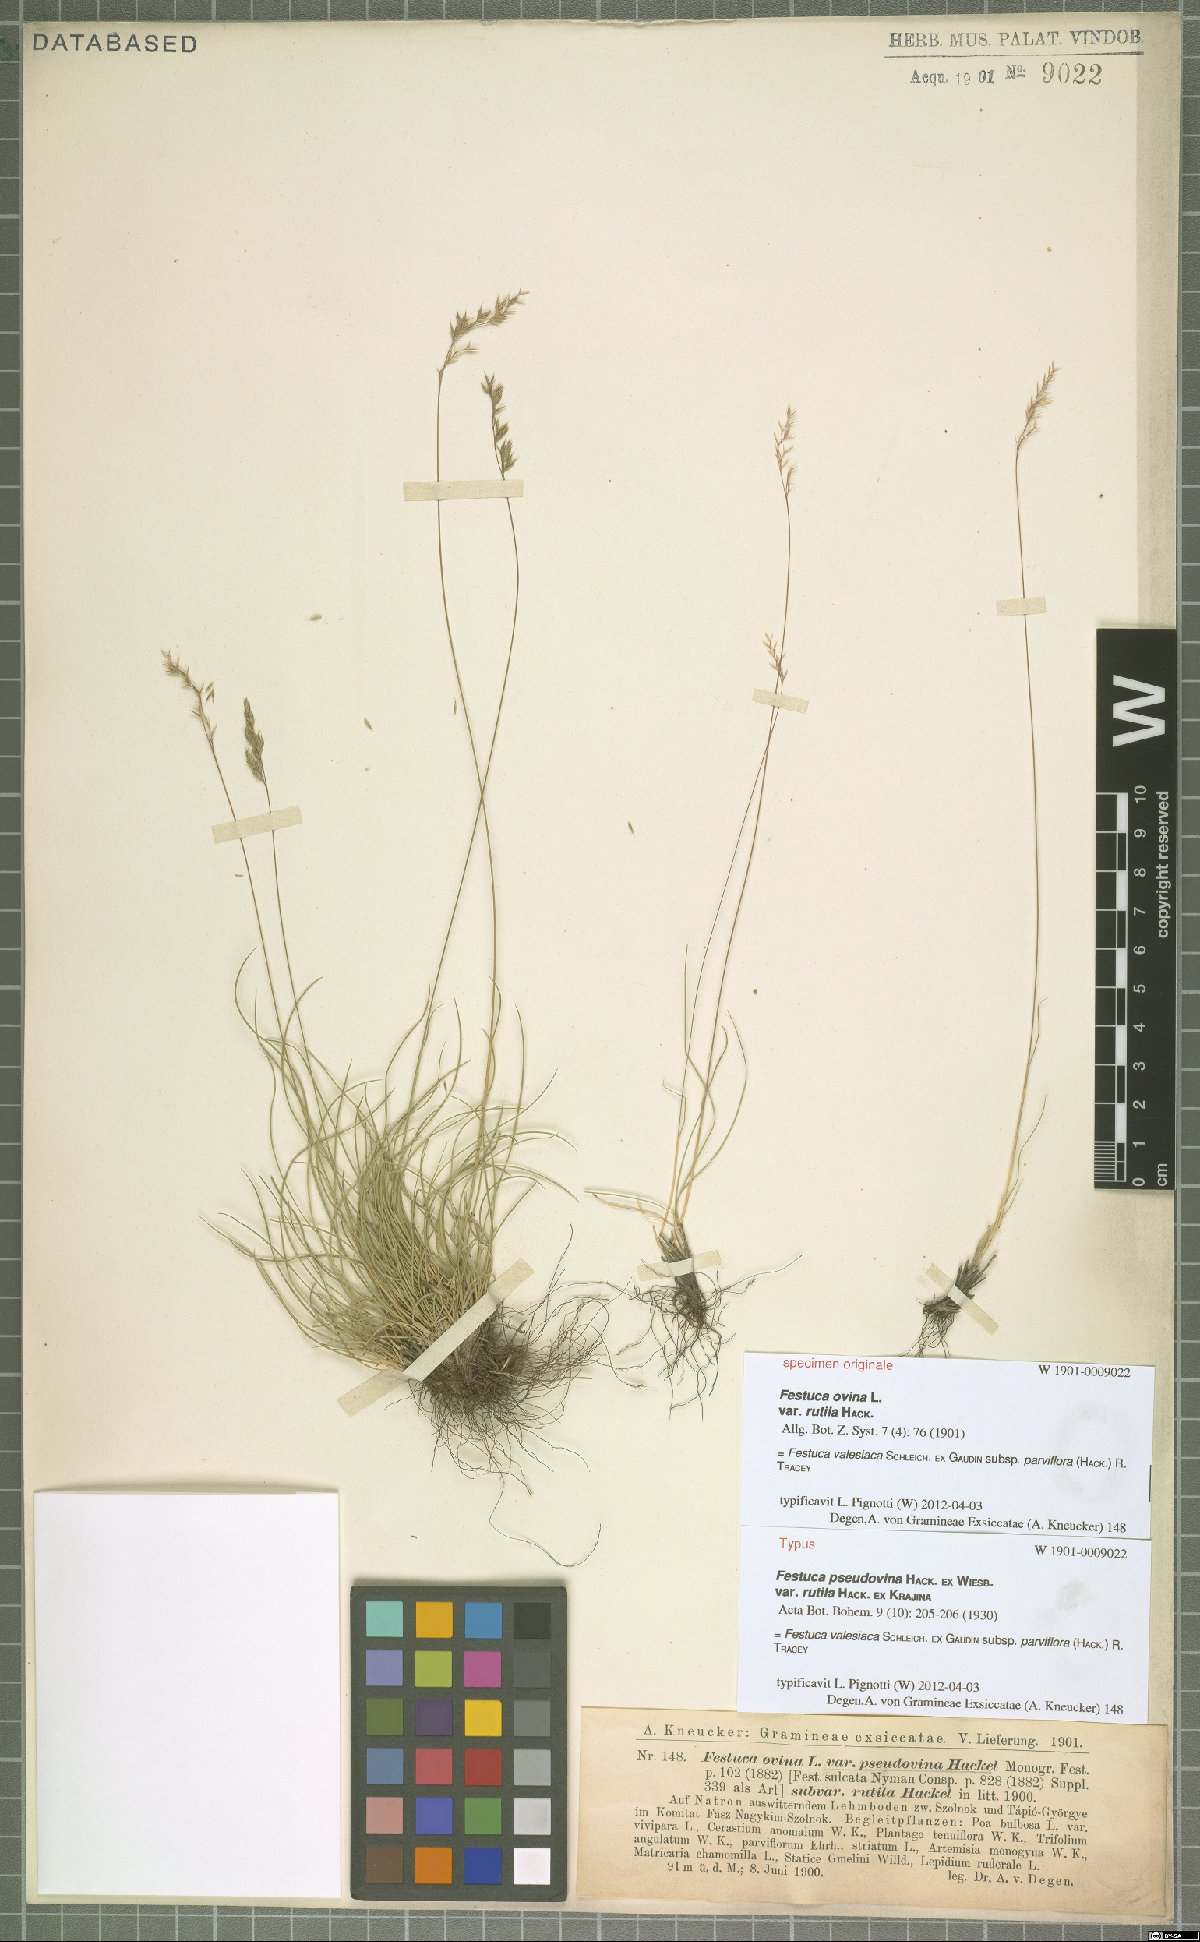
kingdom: Plantae
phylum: Tracheophyta
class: Liliopsida
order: Poales
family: Poaceae
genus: Festuca
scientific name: Festuca pulchra
